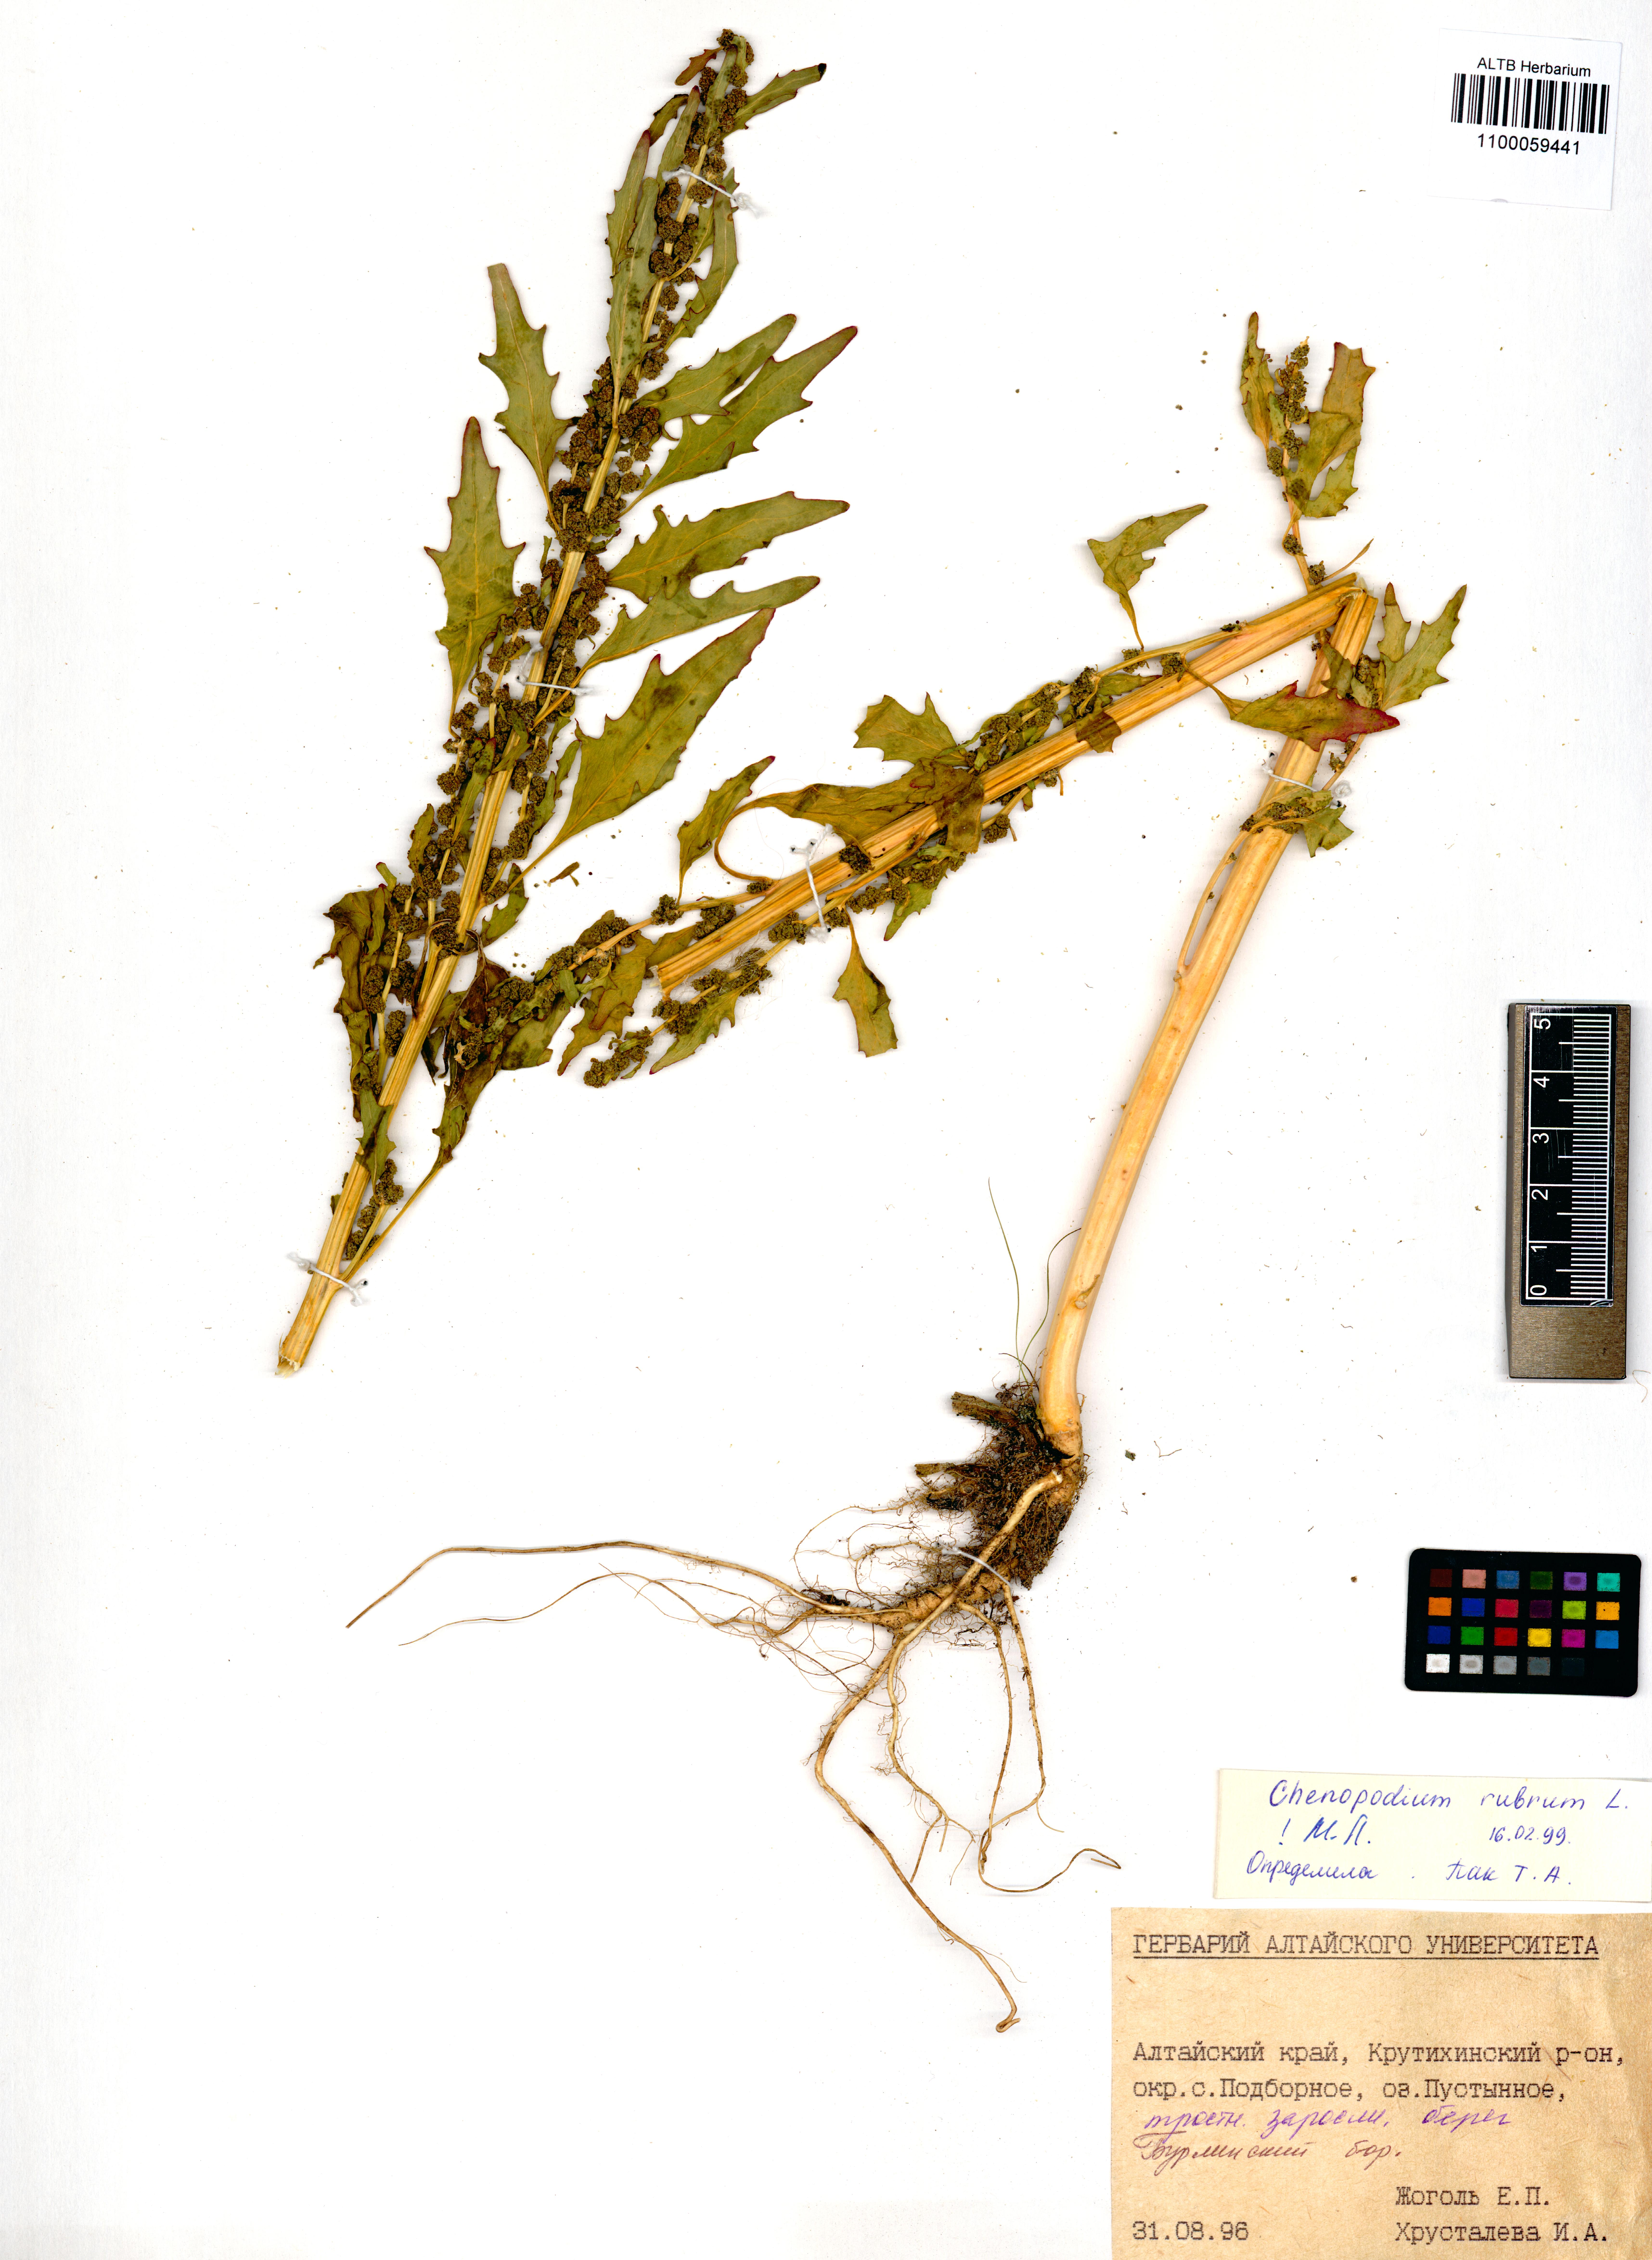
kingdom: Plantae
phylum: Tracheophyta
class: Magnoliopsida
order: Caryophyllales
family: Amaranthaceae
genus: Oxybasis
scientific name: Oxybasis rubra
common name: Red goosefoot
